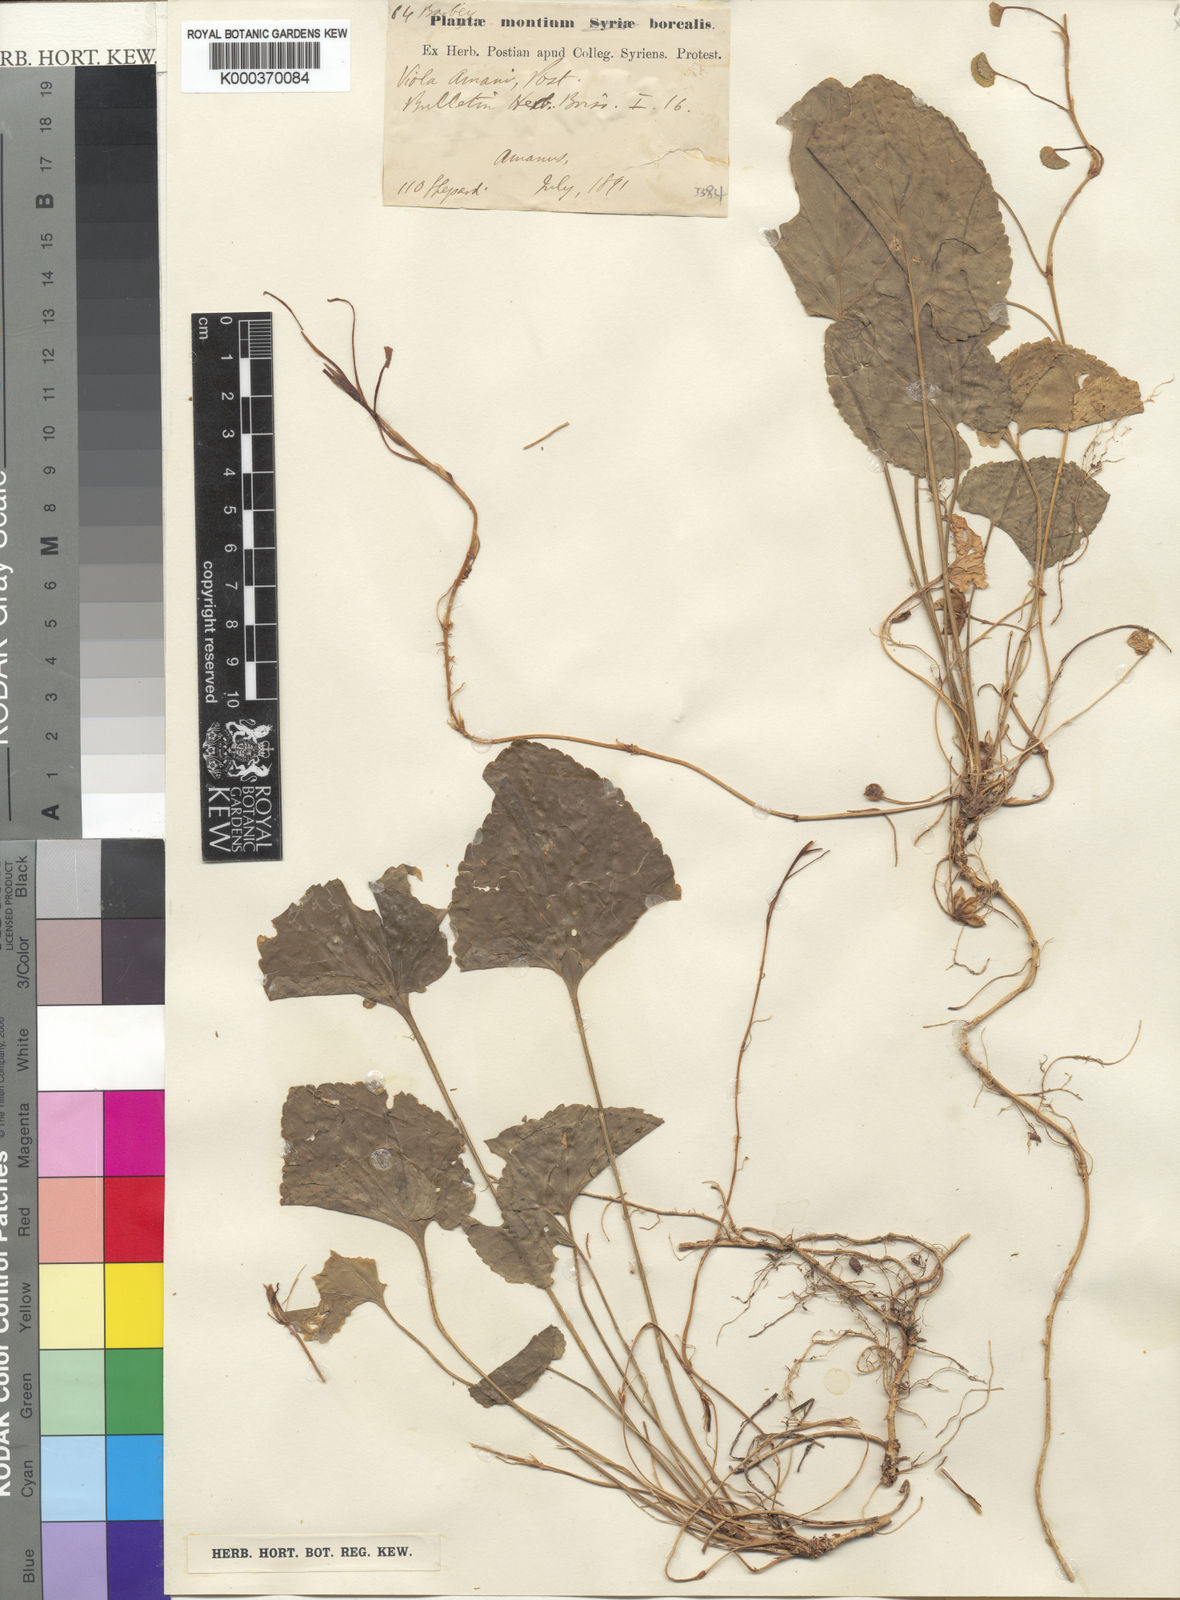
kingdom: Plantae
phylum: Tracheophyta
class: Magnoliopsida
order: Malpighiales
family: Violaceae
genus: Viola
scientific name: Viola amani
